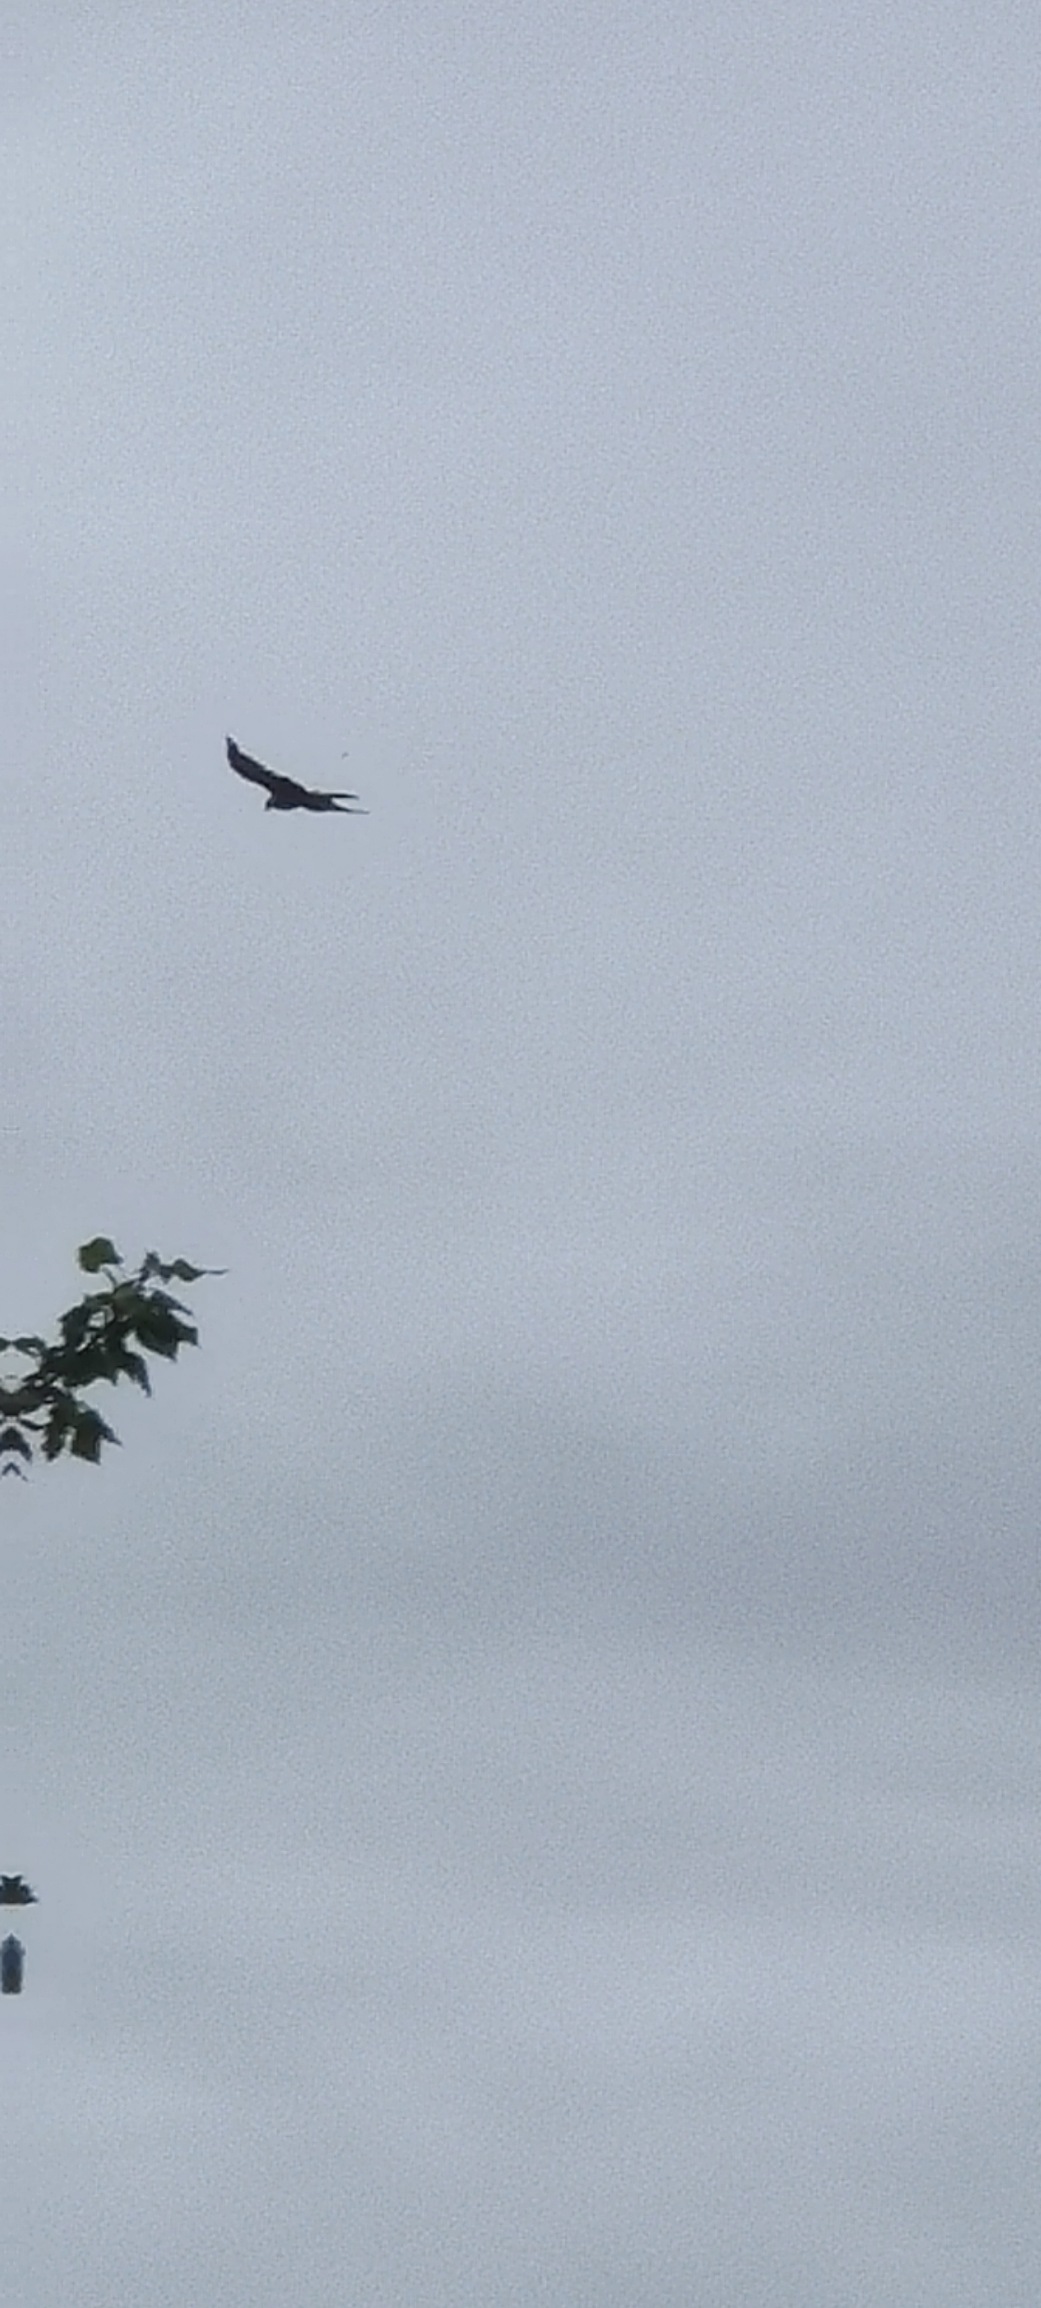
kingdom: Animalia
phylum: Chordata
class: Aves
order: Accipitriformes
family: Accipitridae
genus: Milvus
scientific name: Milvus milvus
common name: Rød glente
